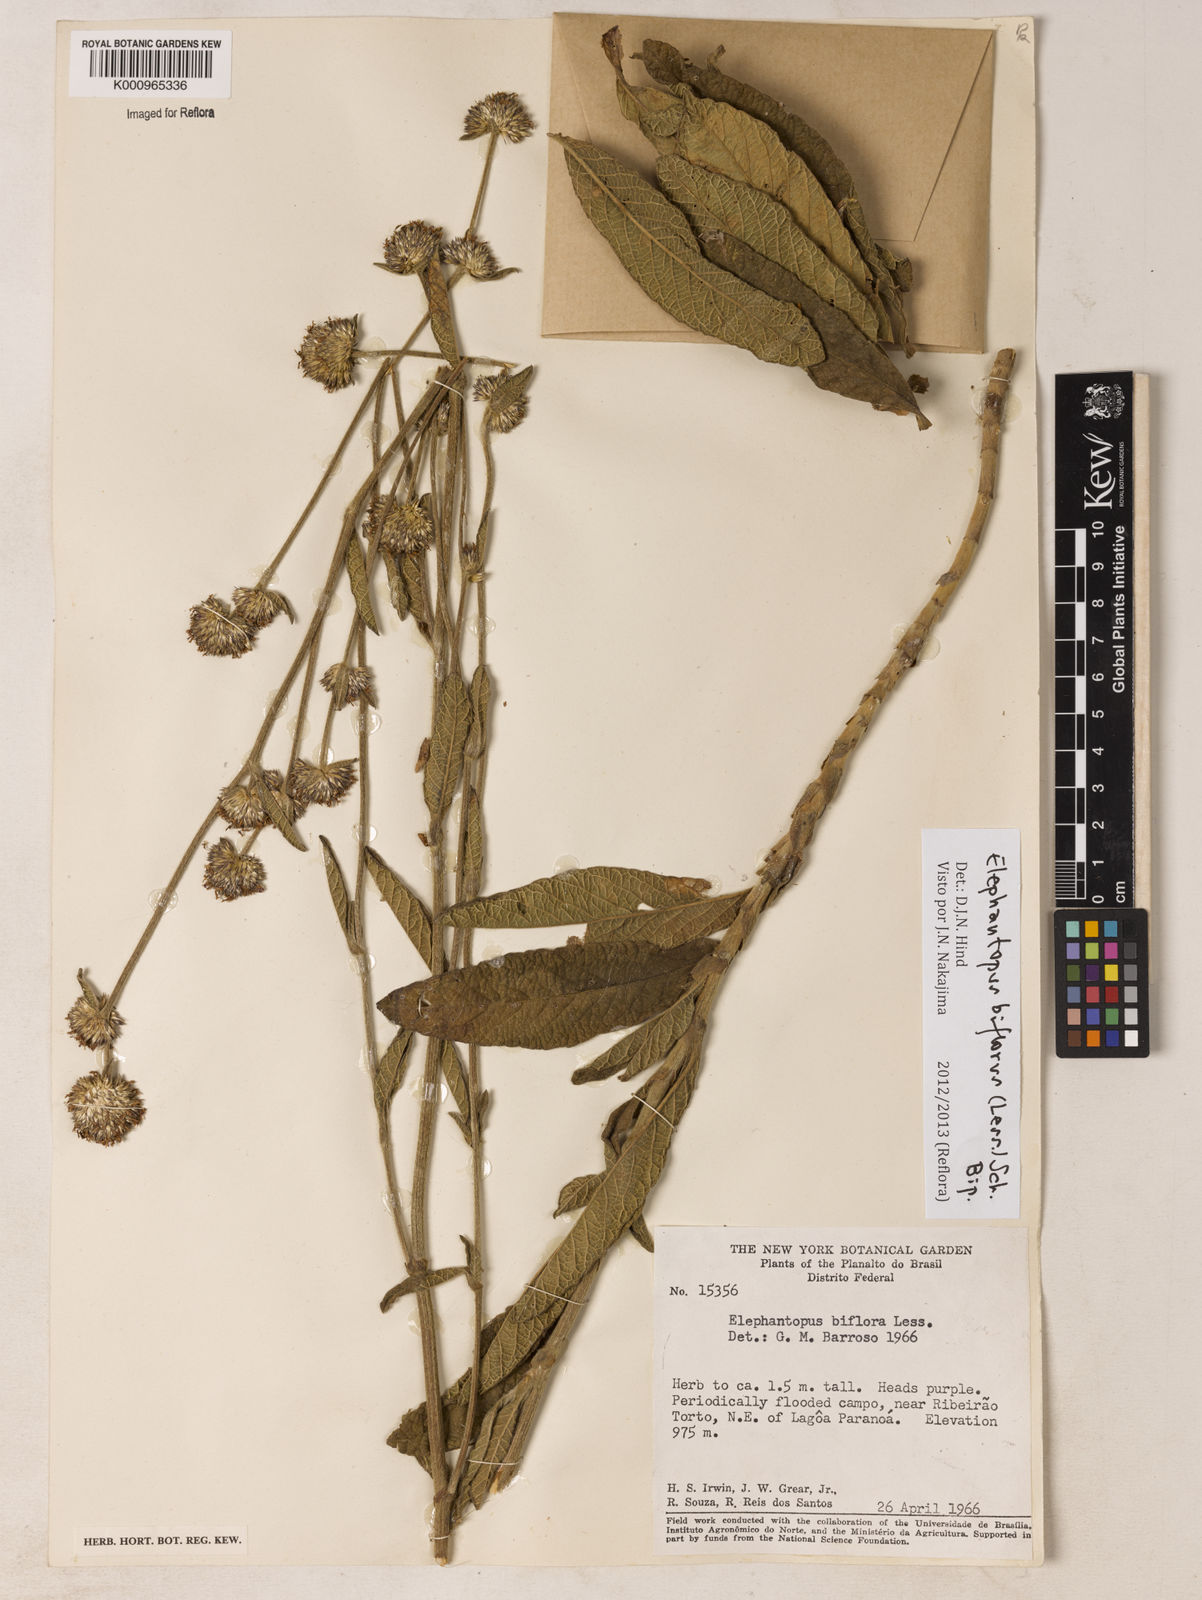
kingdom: Plantae
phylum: Tracheophyta
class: Magnoliopsida
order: Asterales
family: Asteraceae
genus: Elephantopus
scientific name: Elephantopus biflorus
